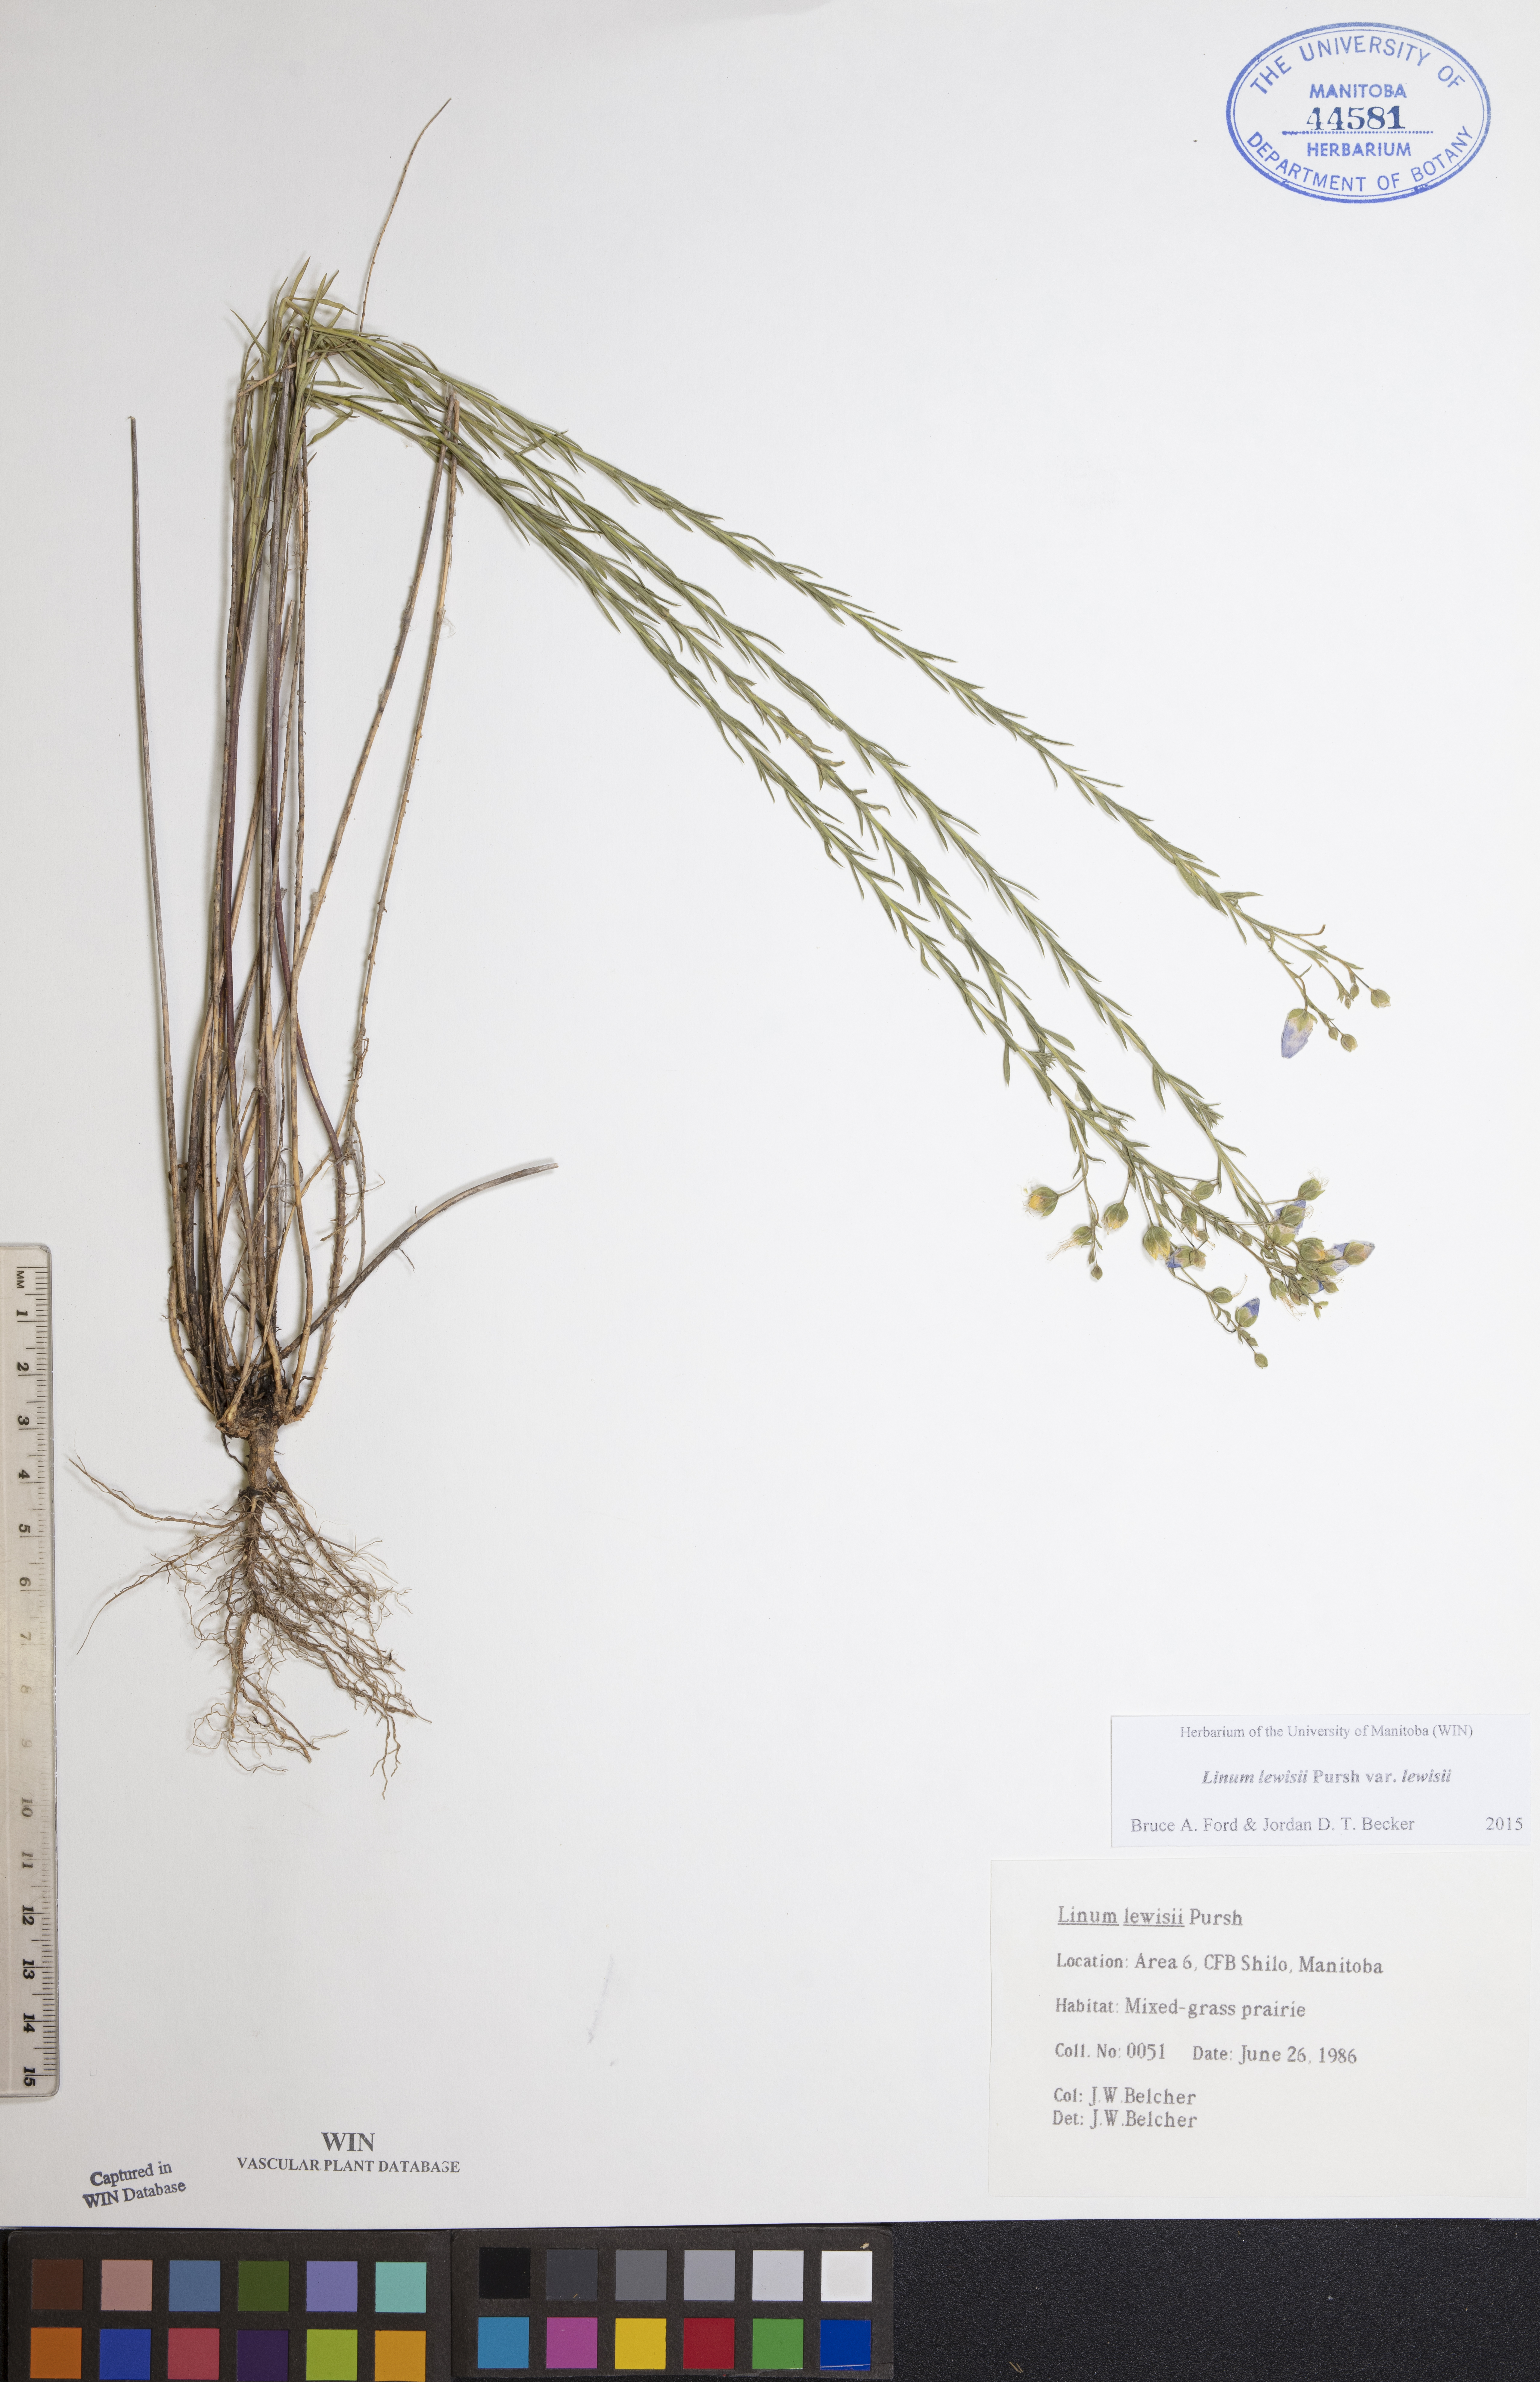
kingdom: Plantae
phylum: Tracheophyta
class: Magnoliopsida
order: Malpighiales
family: Linaceae
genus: Linum
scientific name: Linum lewisii
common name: Prairie flax
